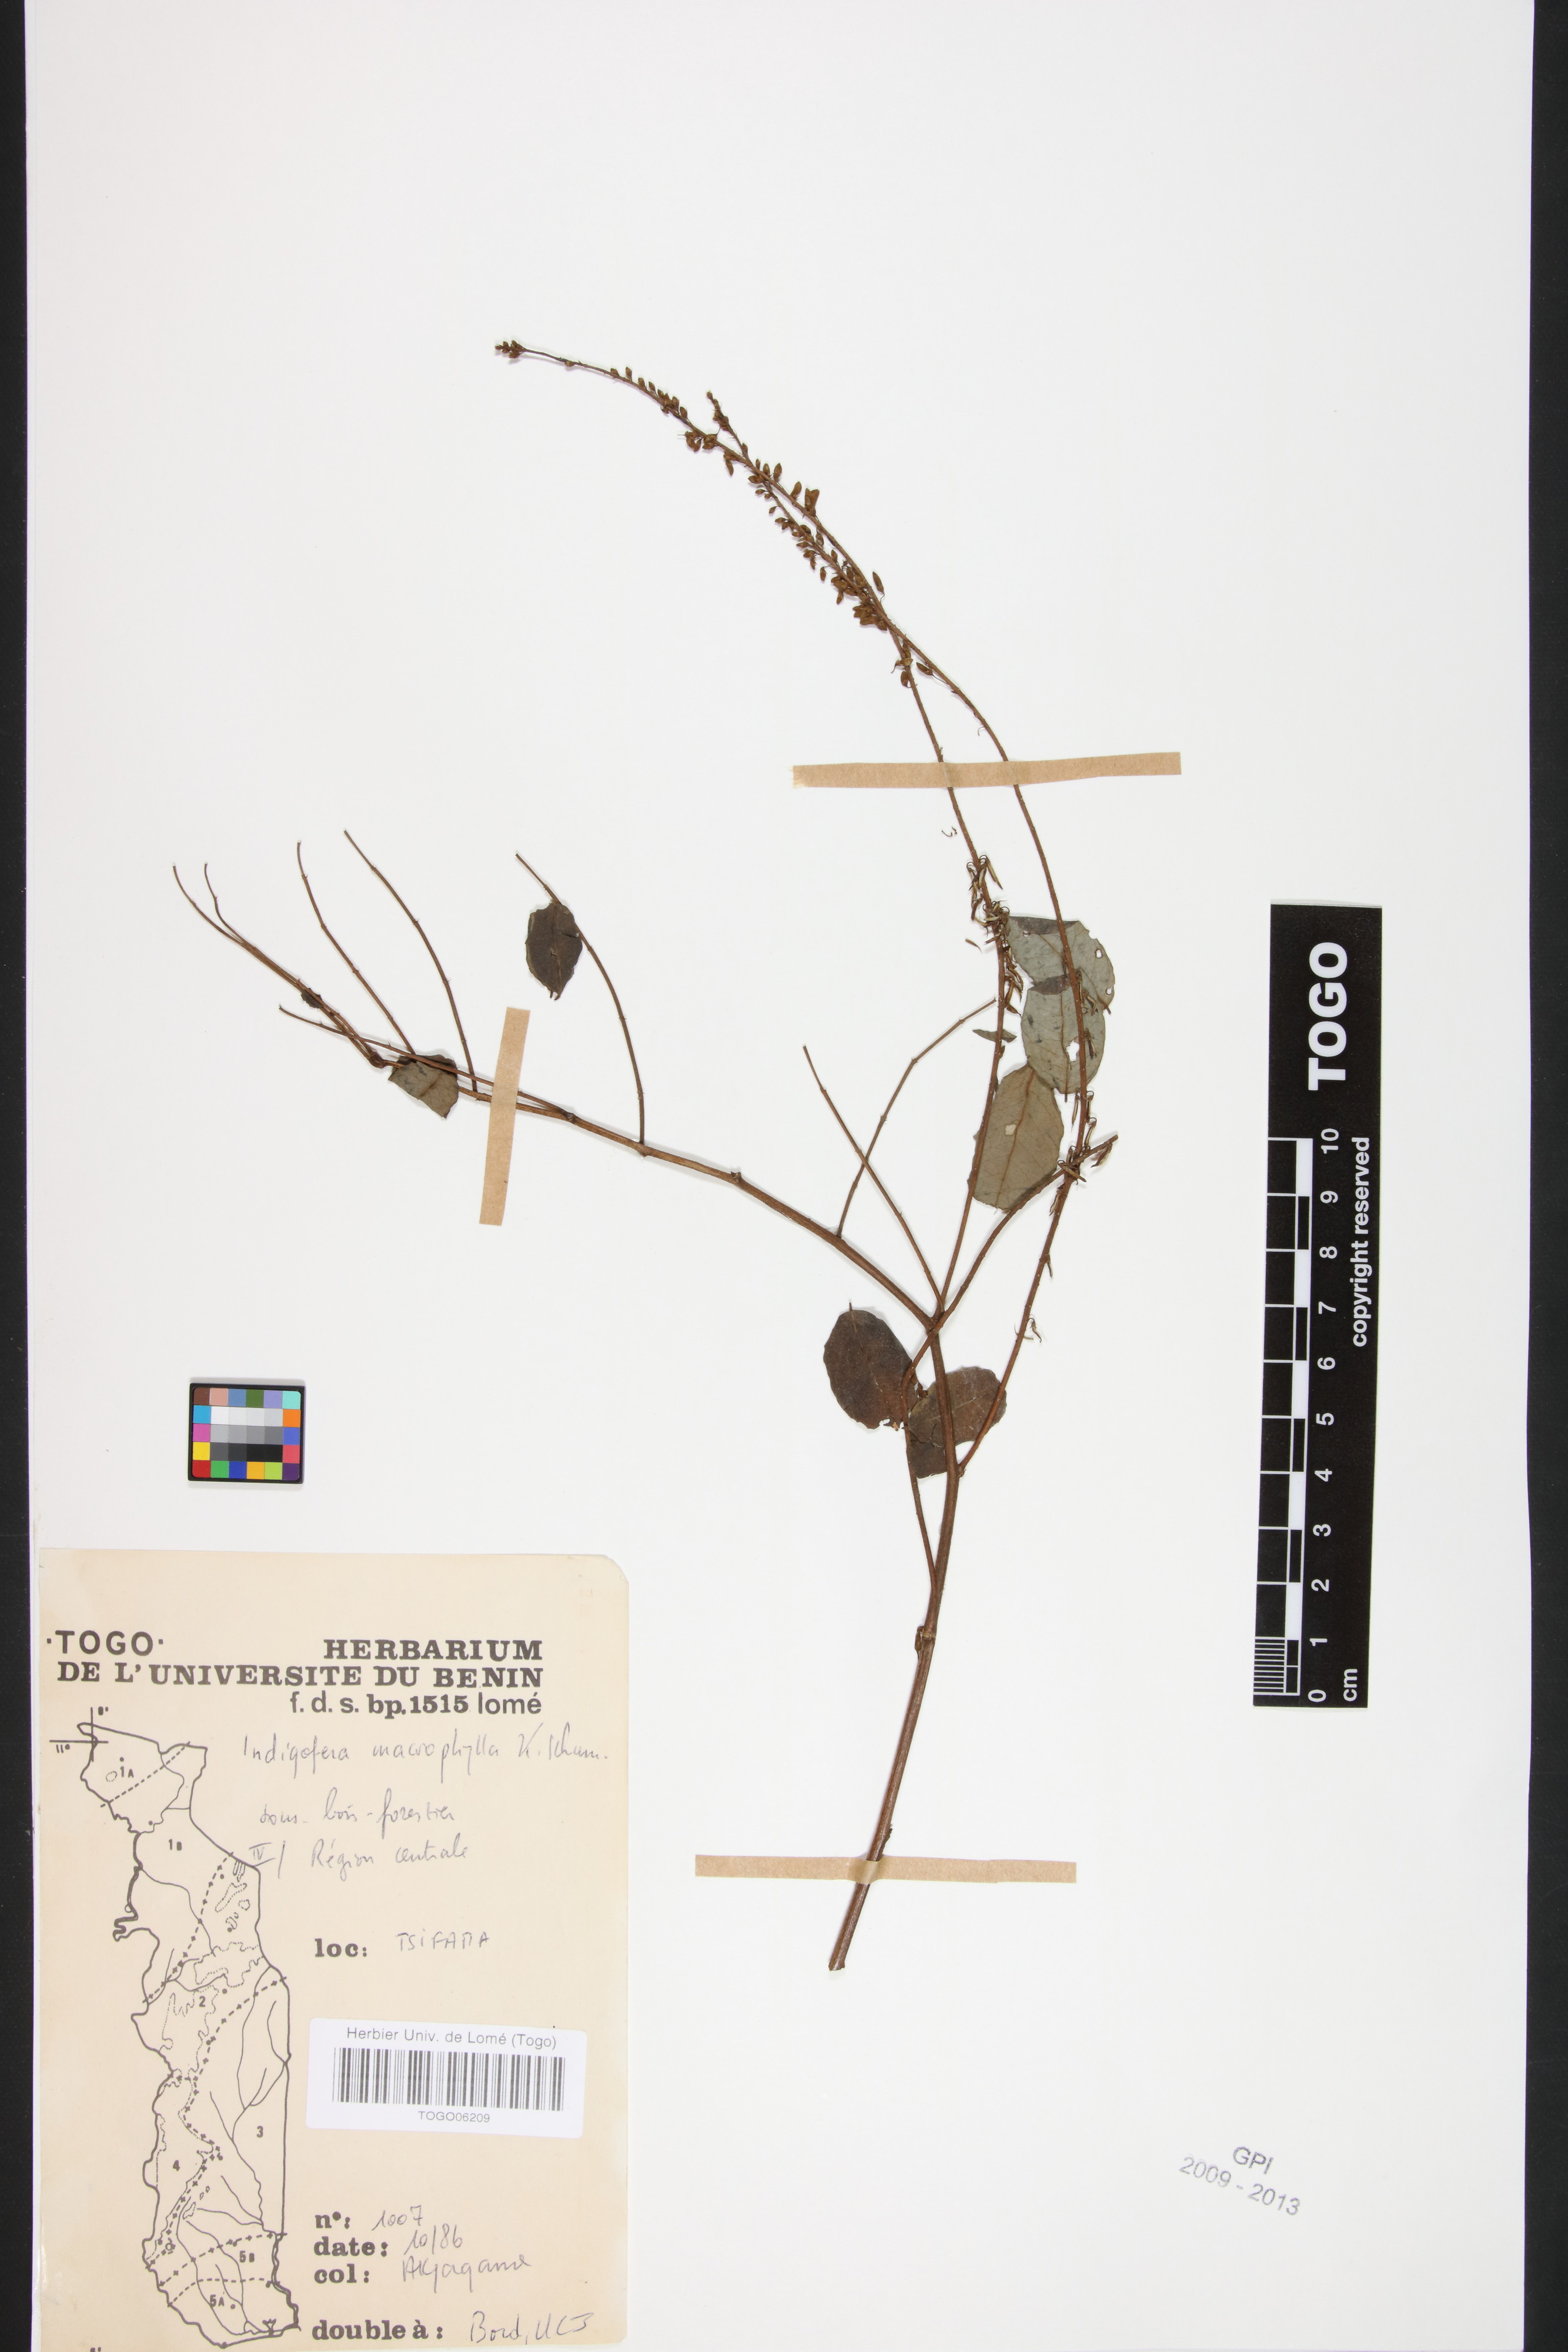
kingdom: Plantae
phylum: Tracheophyta
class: Magnoliopsida
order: Fabales
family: Fabaceae
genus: Indigofera
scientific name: Indigofera macrophylla
